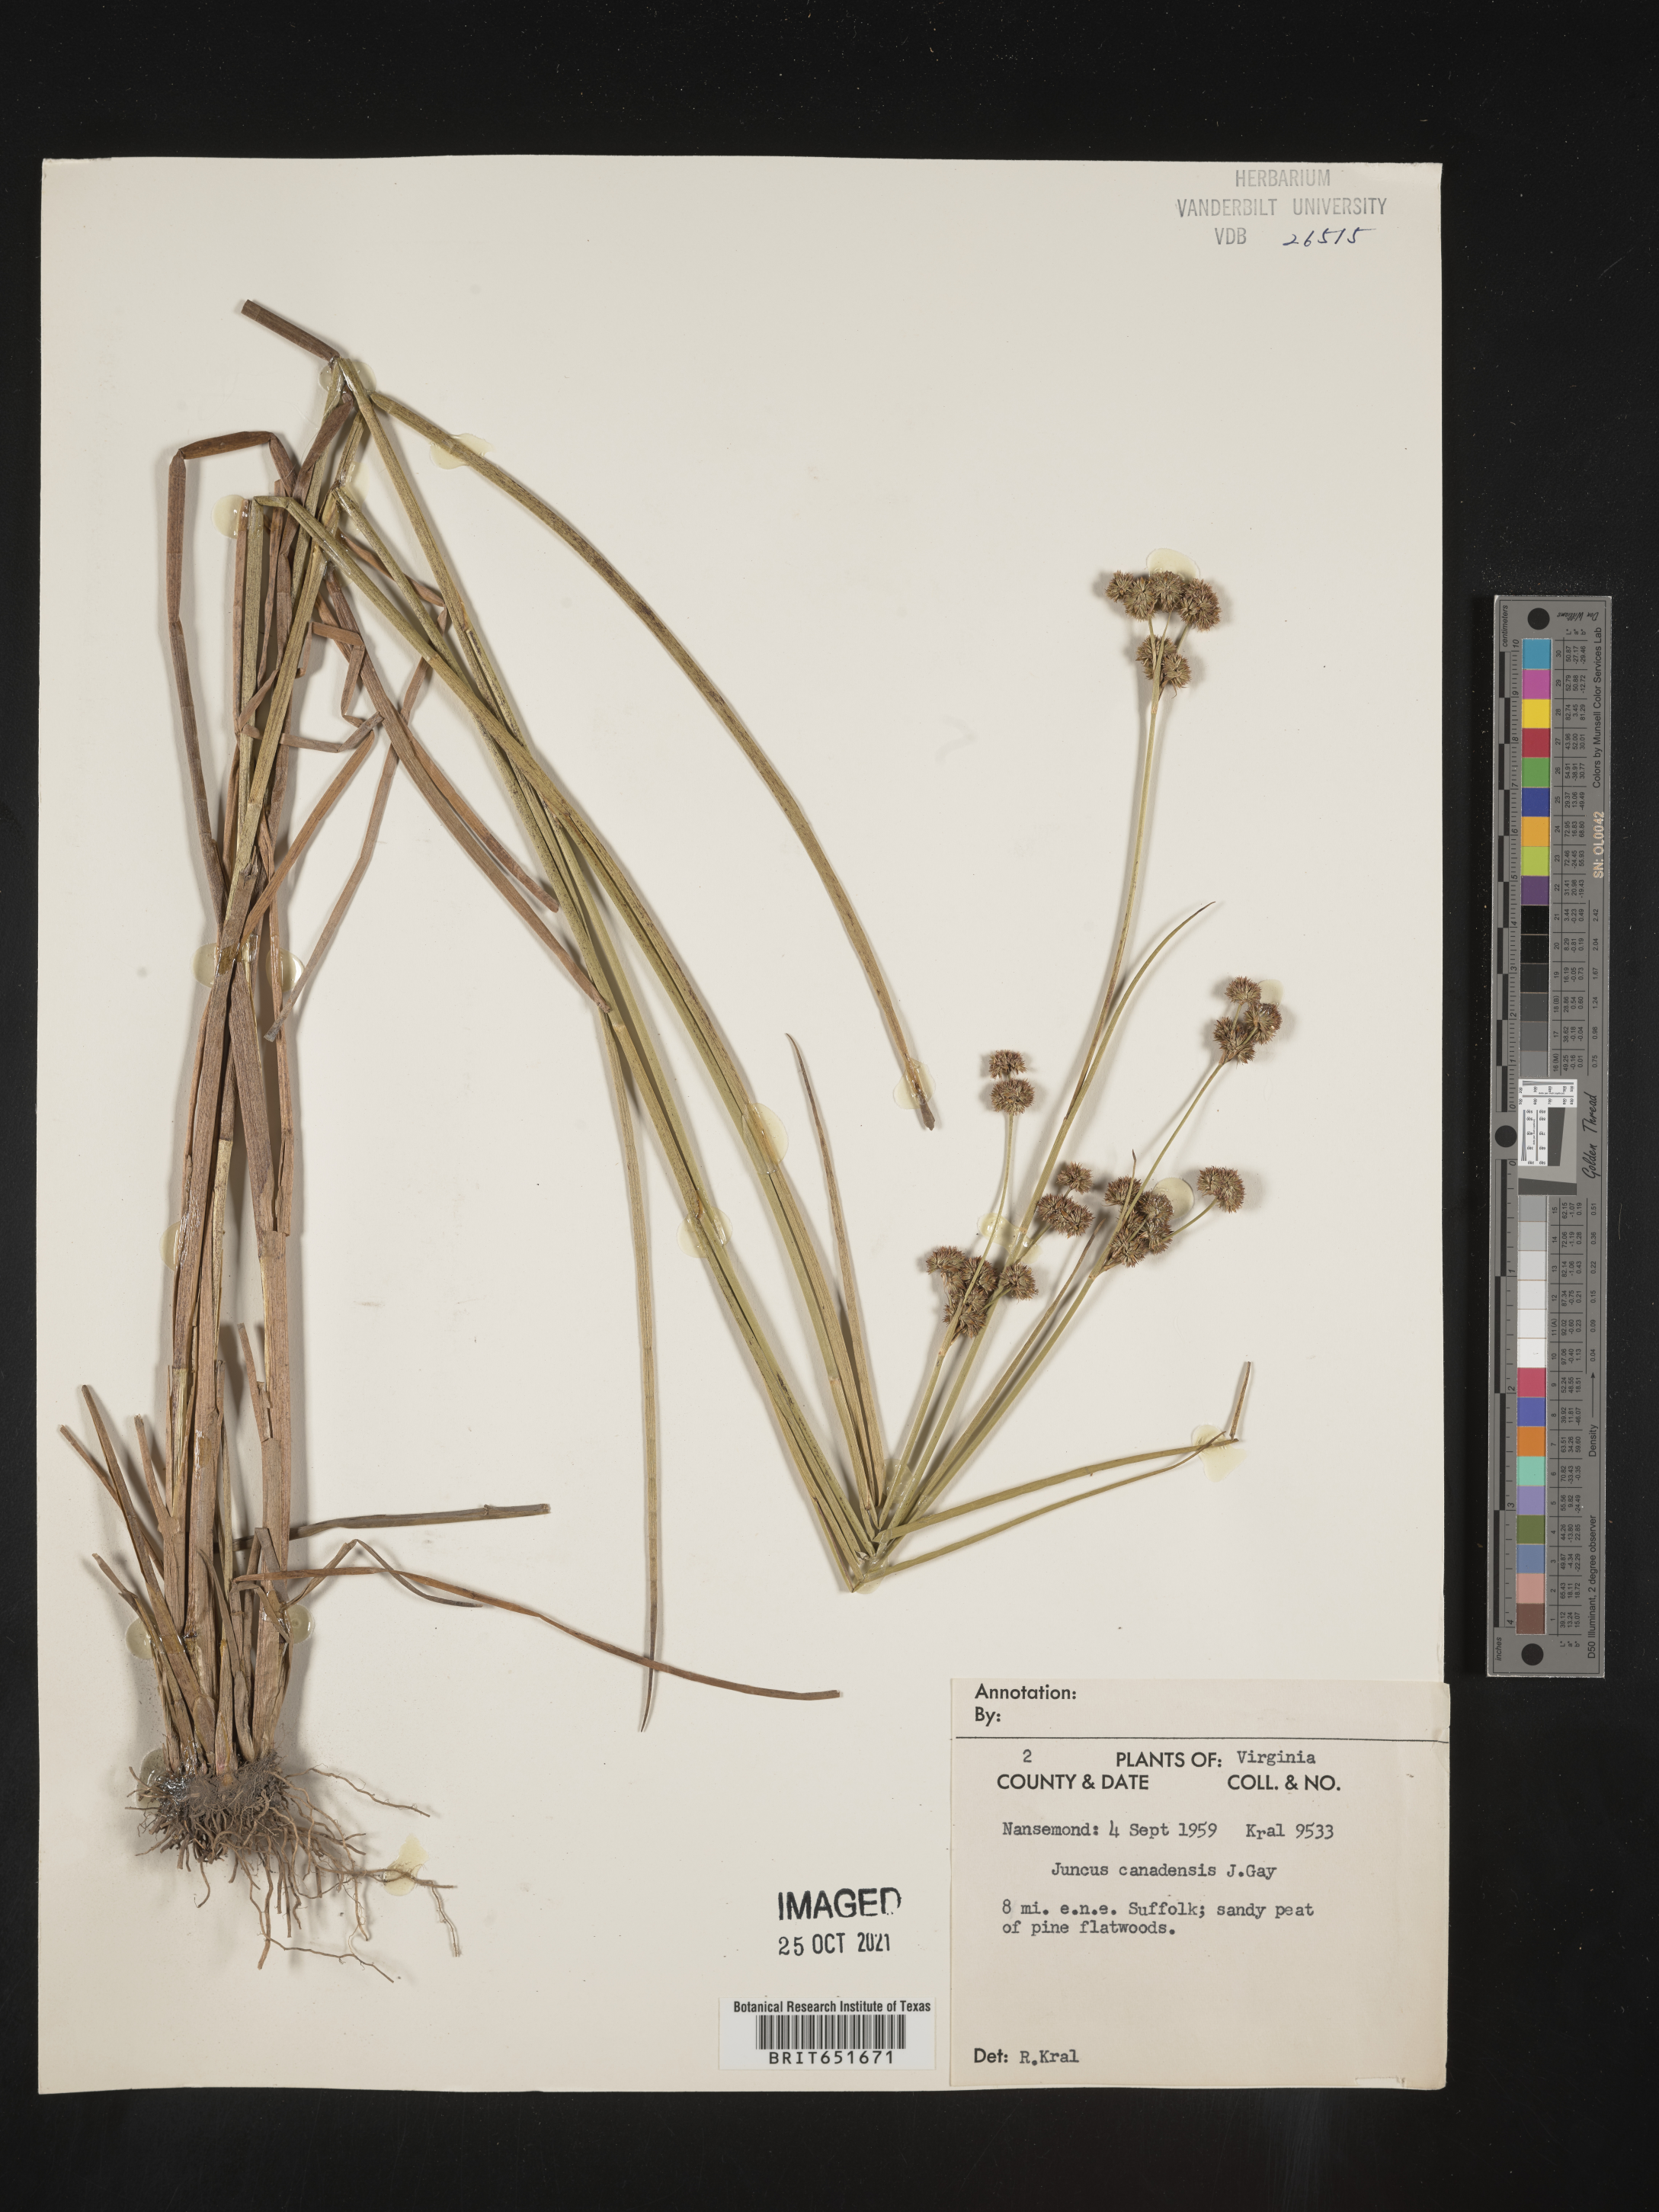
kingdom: Plantae
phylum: Tracheophyta
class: Liliopsida
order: Poales
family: Juncaceae
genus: Juncus
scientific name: Juncus canadensis
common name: Canada rush
